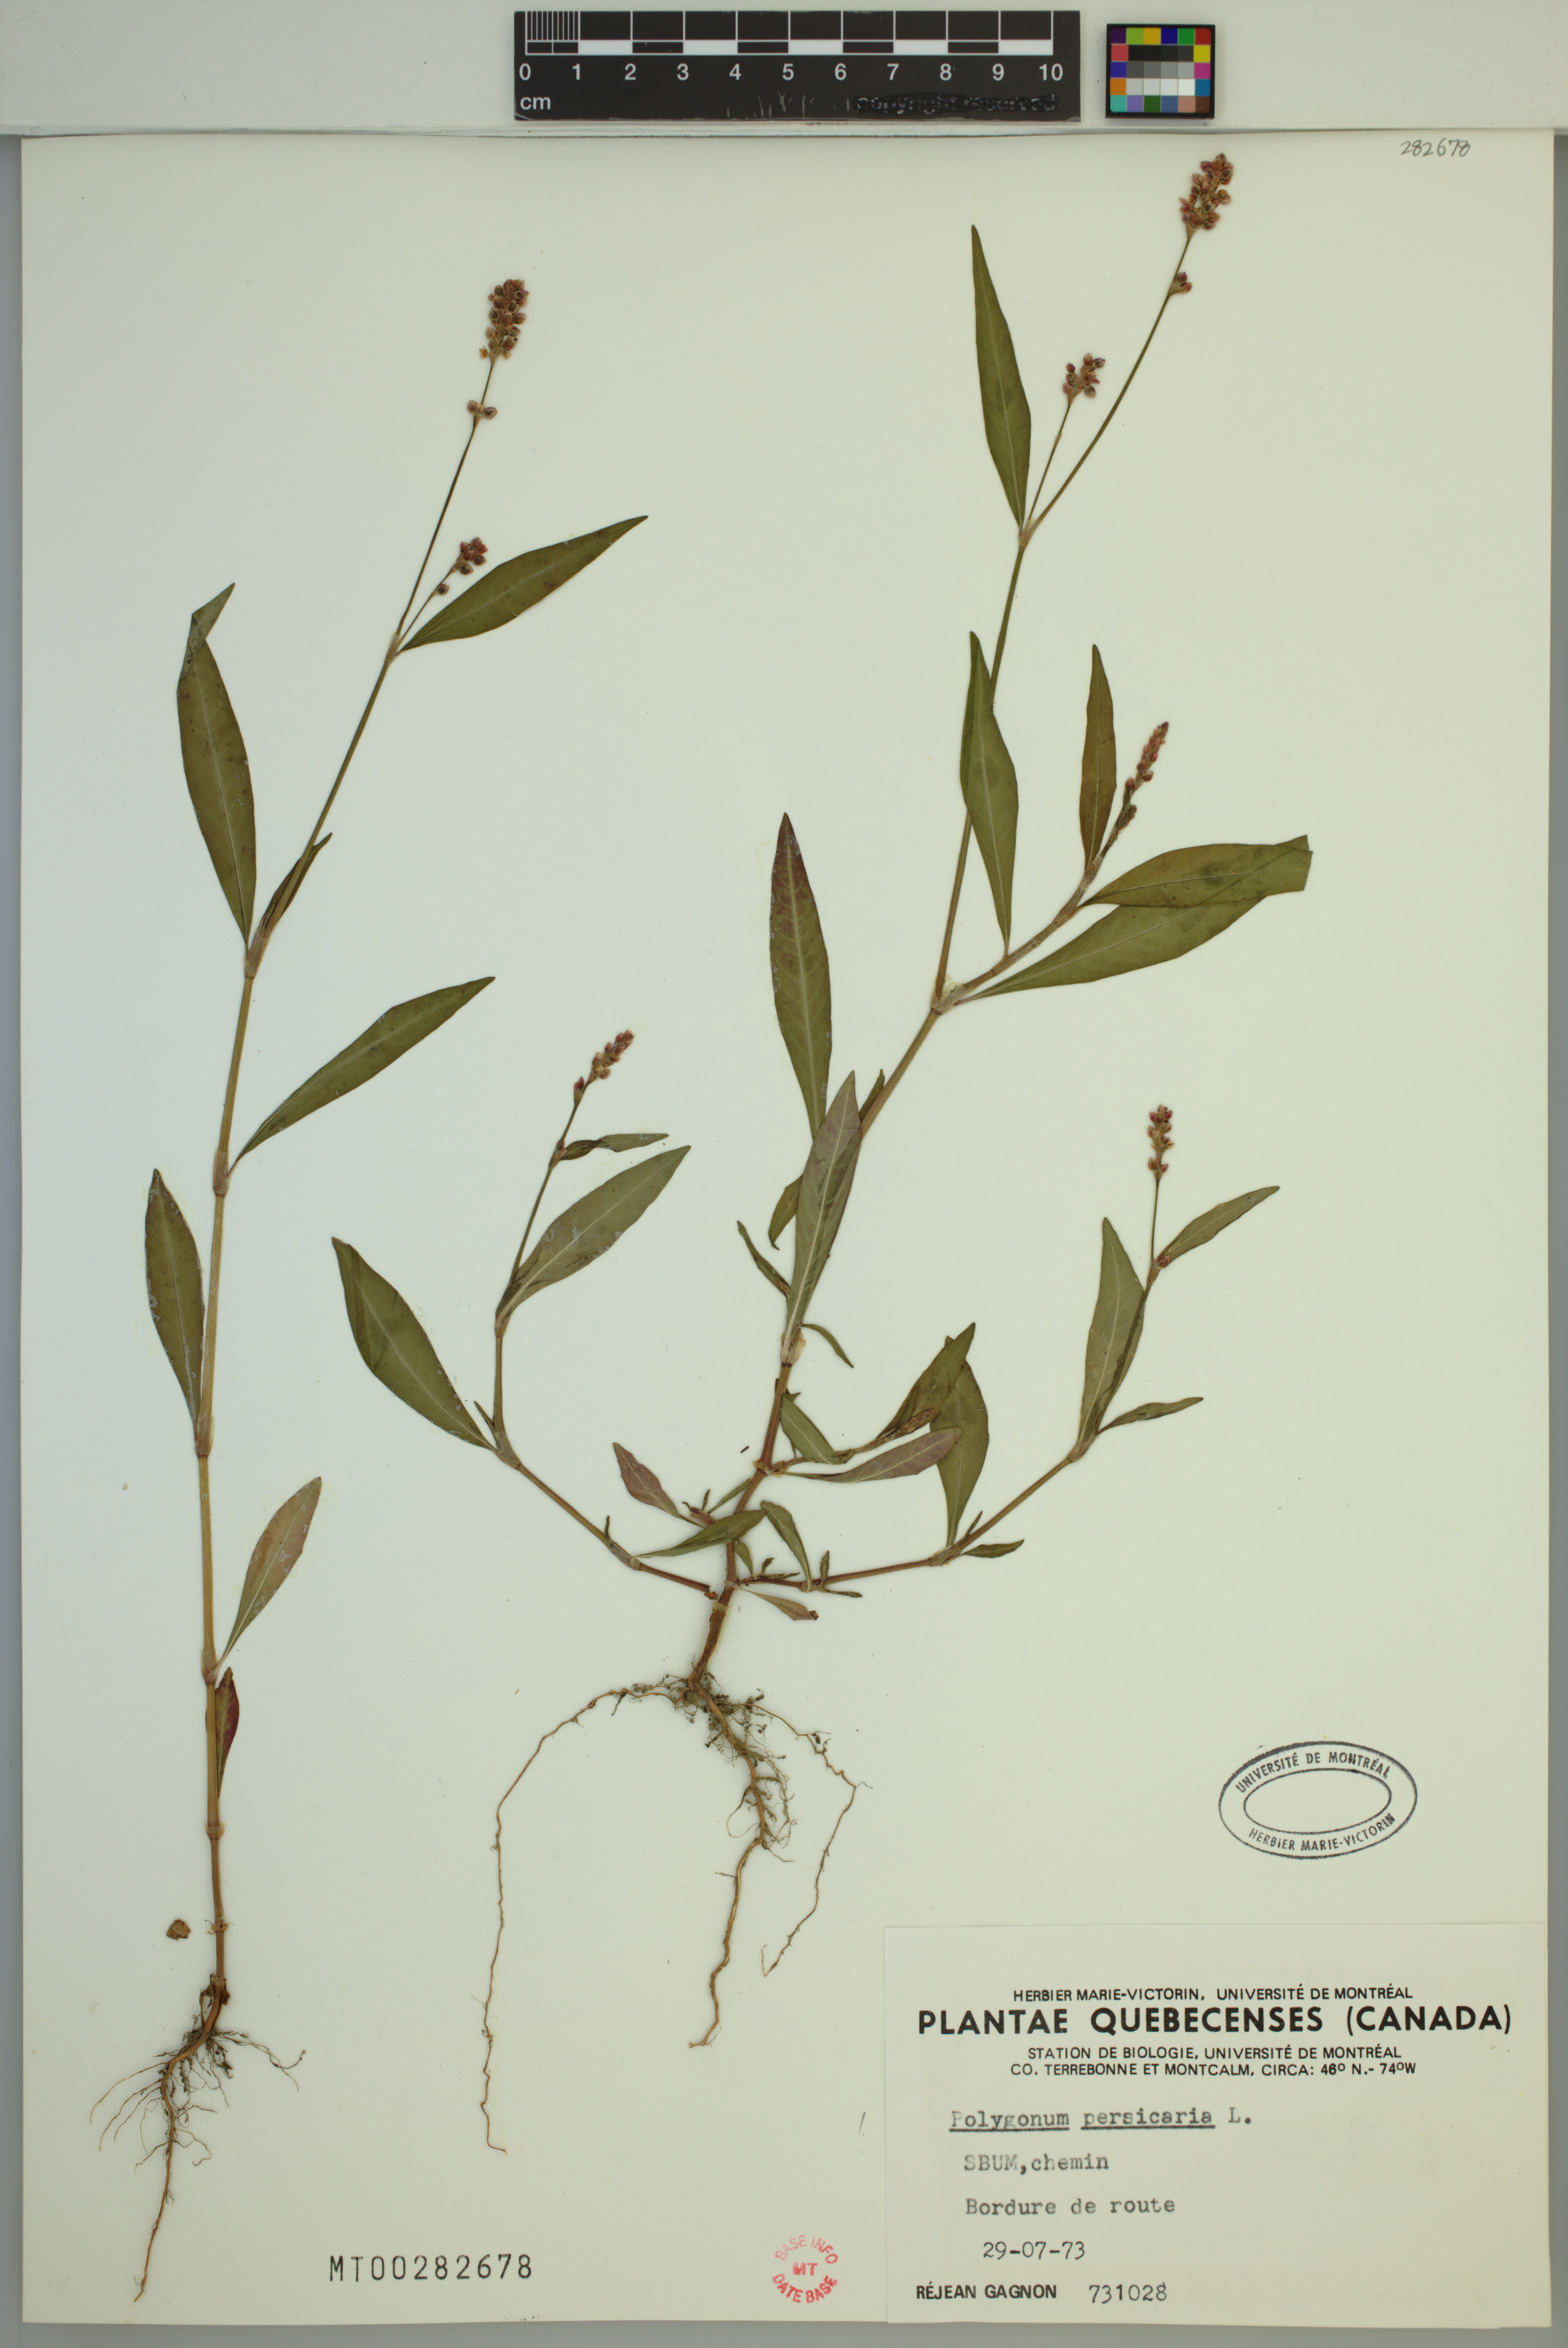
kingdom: Plantae
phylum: Tracheophyta
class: Magnoliopsida
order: Caryophyllales
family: Polygonaceae
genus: Persicaria
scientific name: Persicaria maculosa
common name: Redshank
